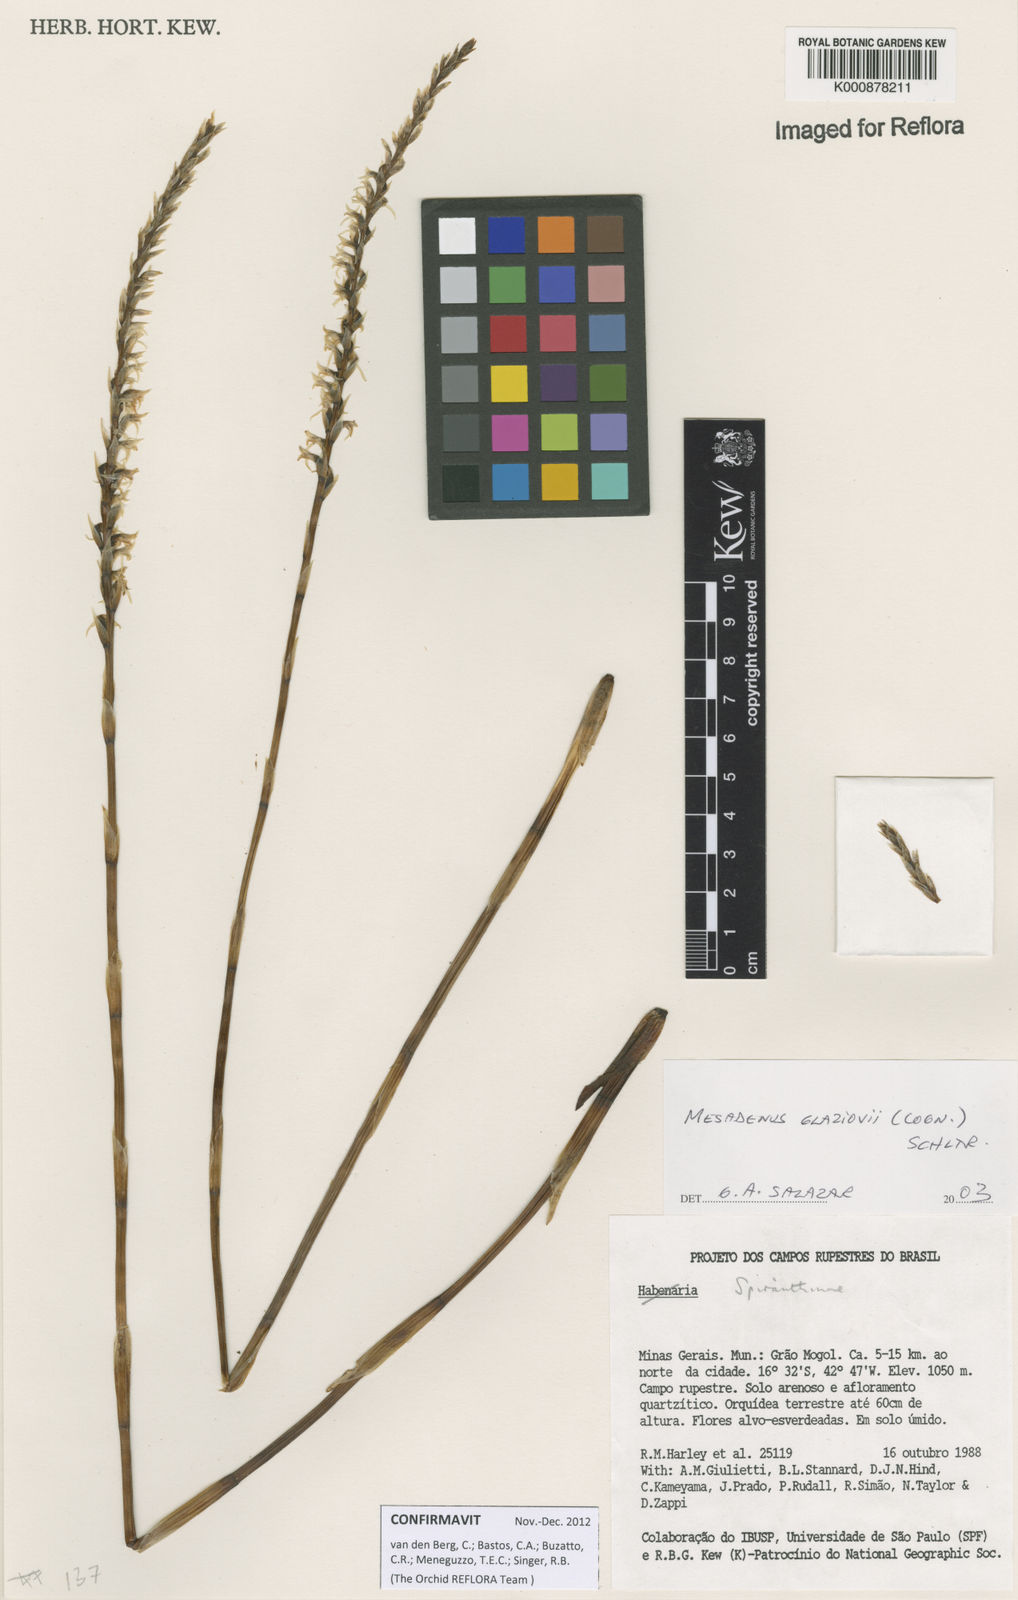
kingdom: Plantae
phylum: Tracheophyta
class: Liliopsida
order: Asparagales
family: Orchidaceae
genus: Espinhassoa
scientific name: Espinhassoa glaziovii
